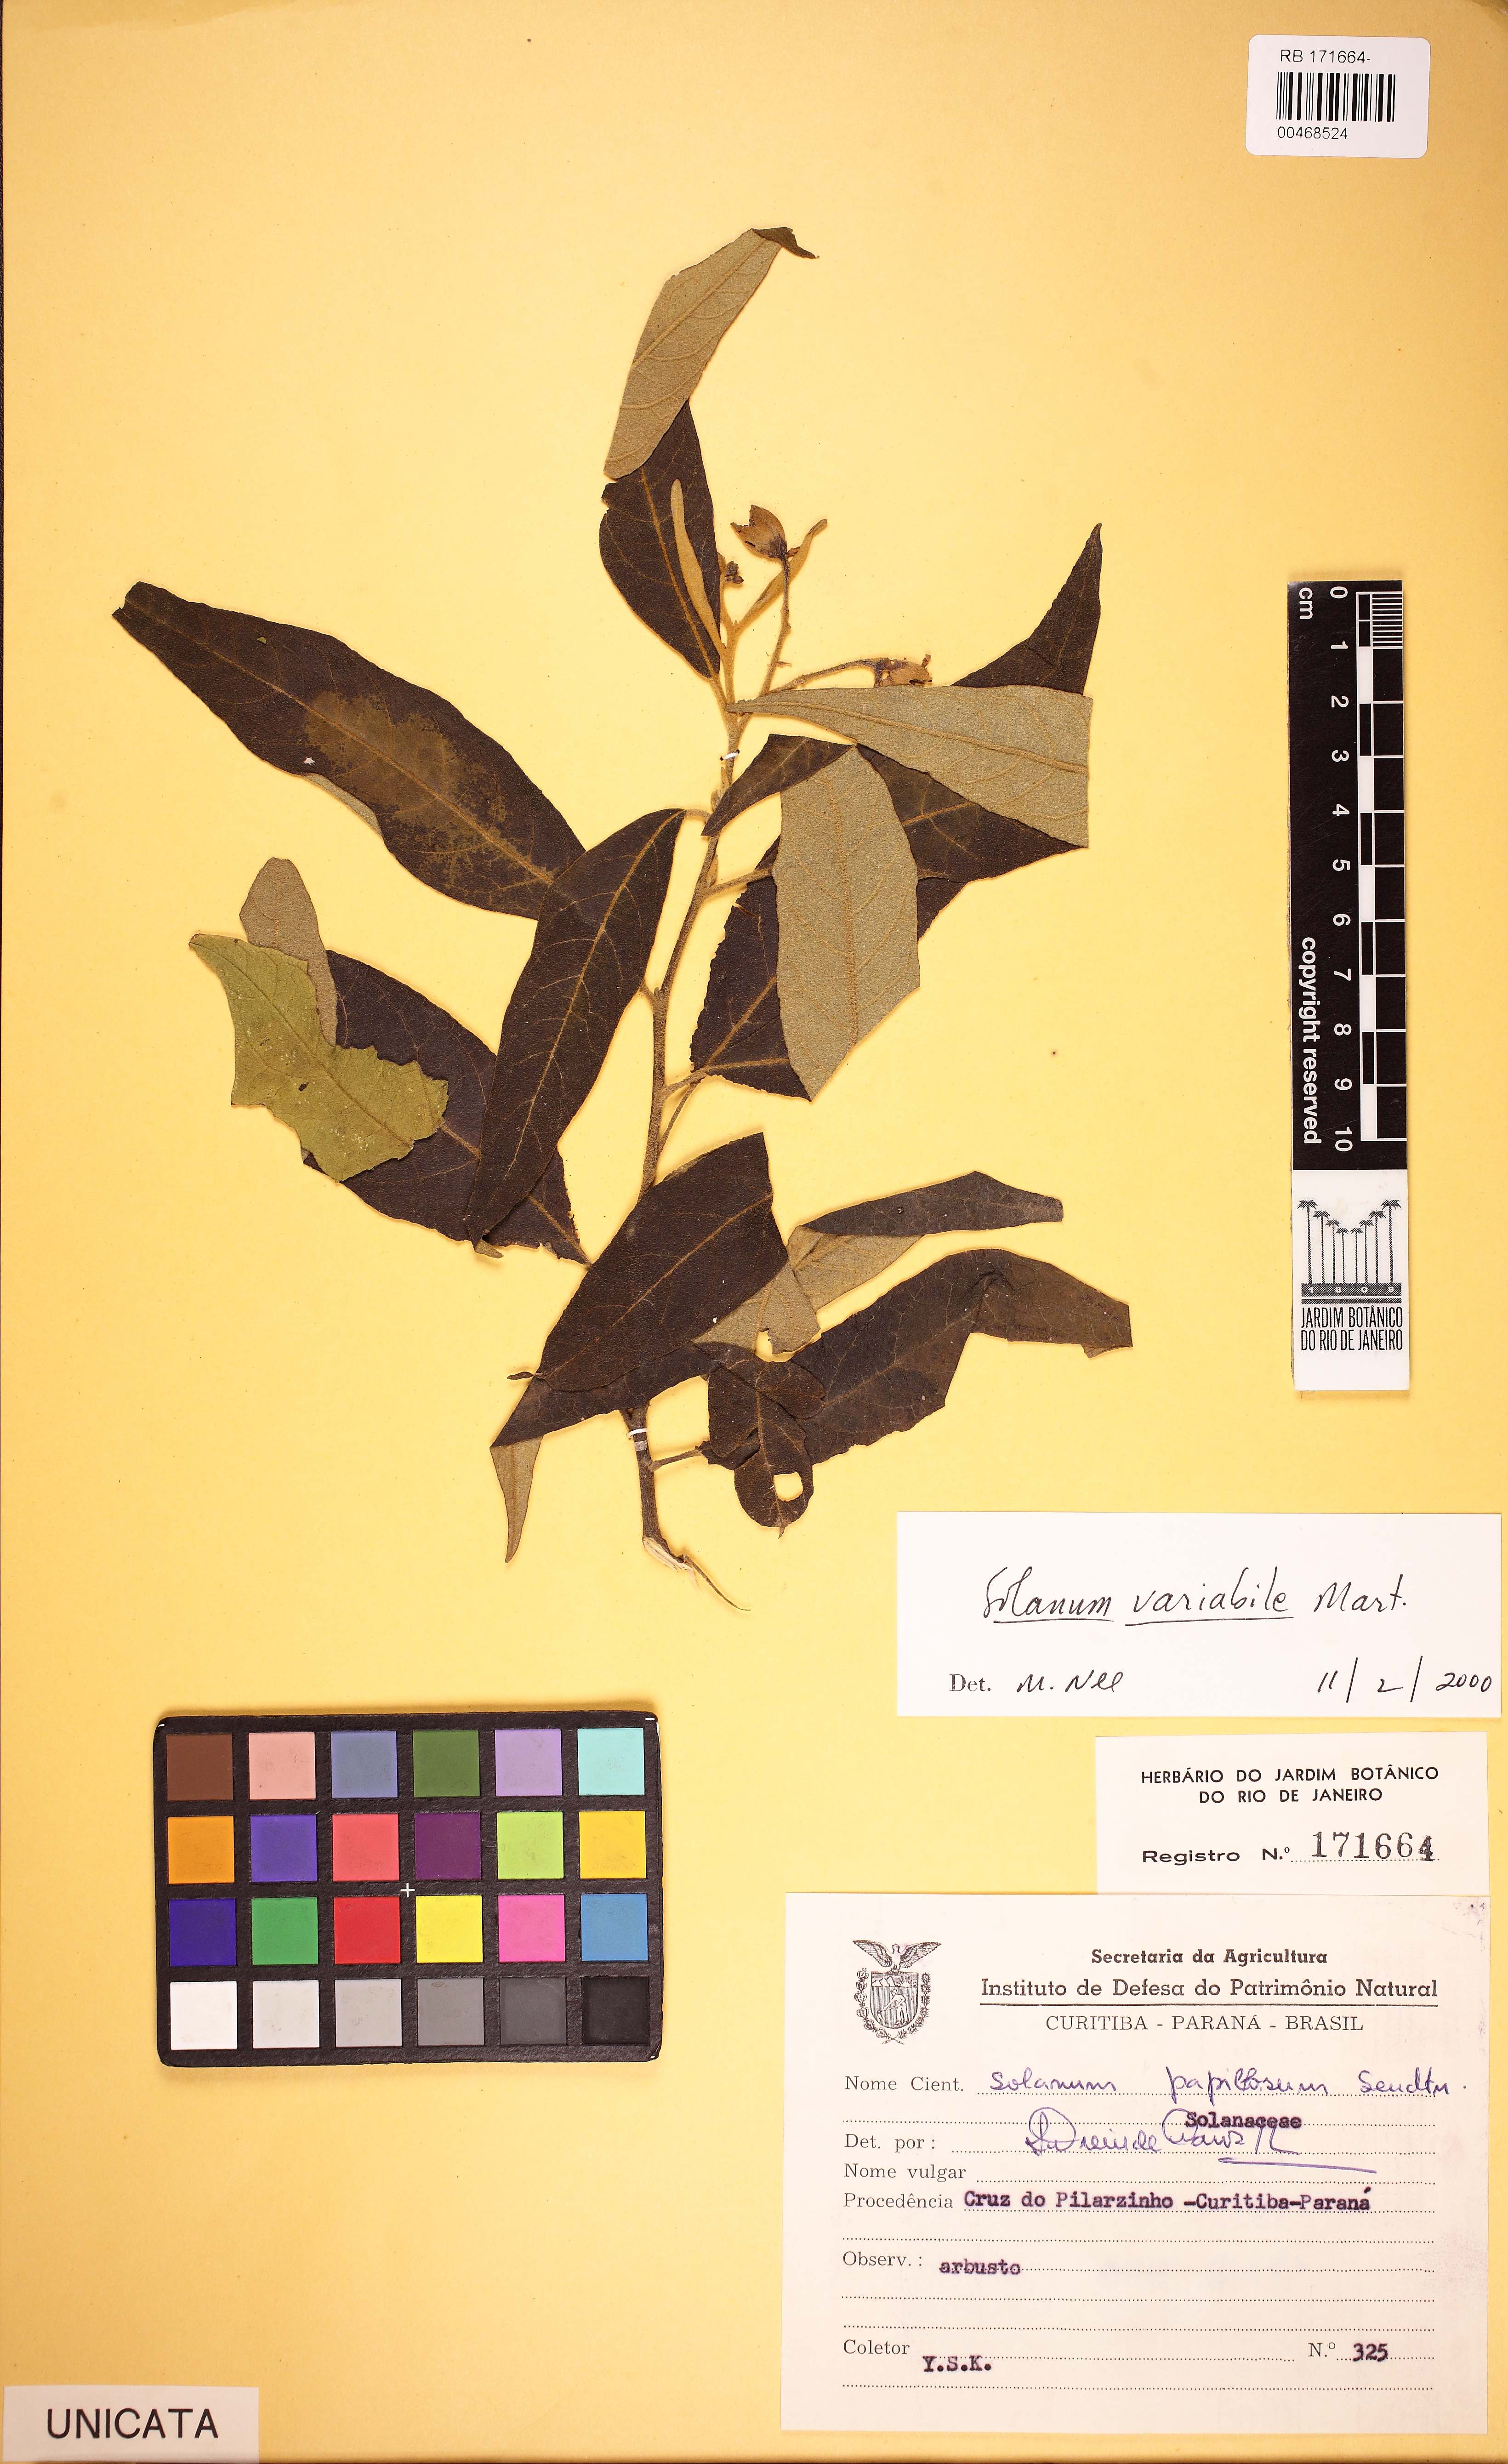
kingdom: Plantae
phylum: Tracheophyta
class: Magnoliopsida
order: Solanales
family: Solanaceae
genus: Solanum
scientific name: Solanum variabile
